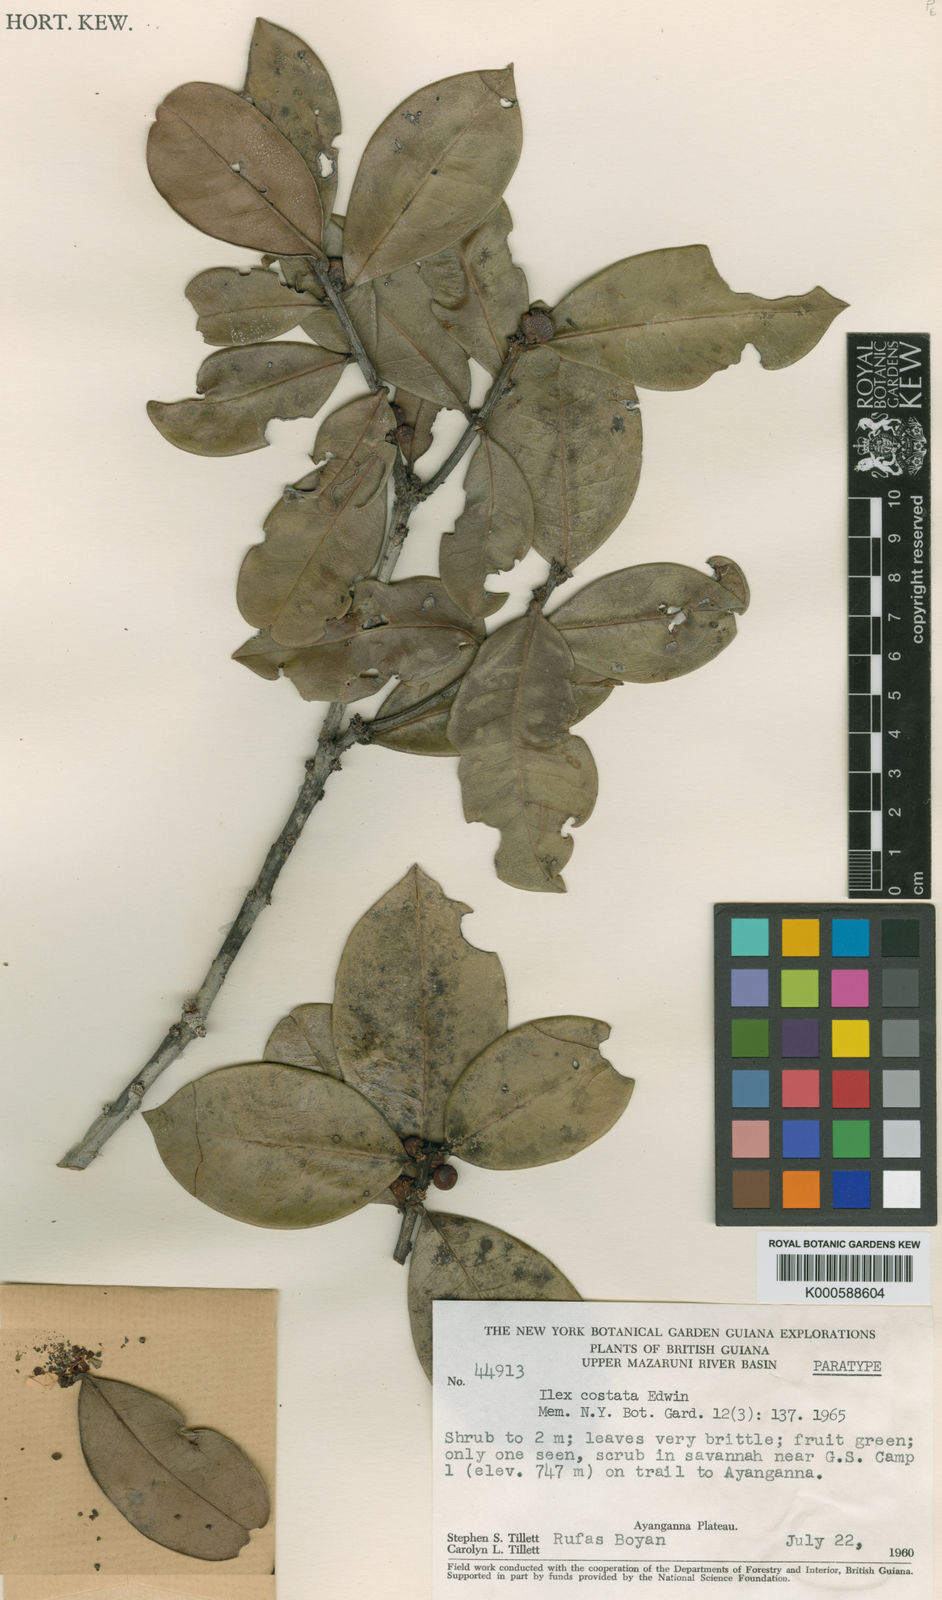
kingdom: Plantae
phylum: Tracheophyta
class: Magnoliopsida
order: Aquifoliales
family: Aquifoliaceae
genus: Ilex
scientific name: Ilex
